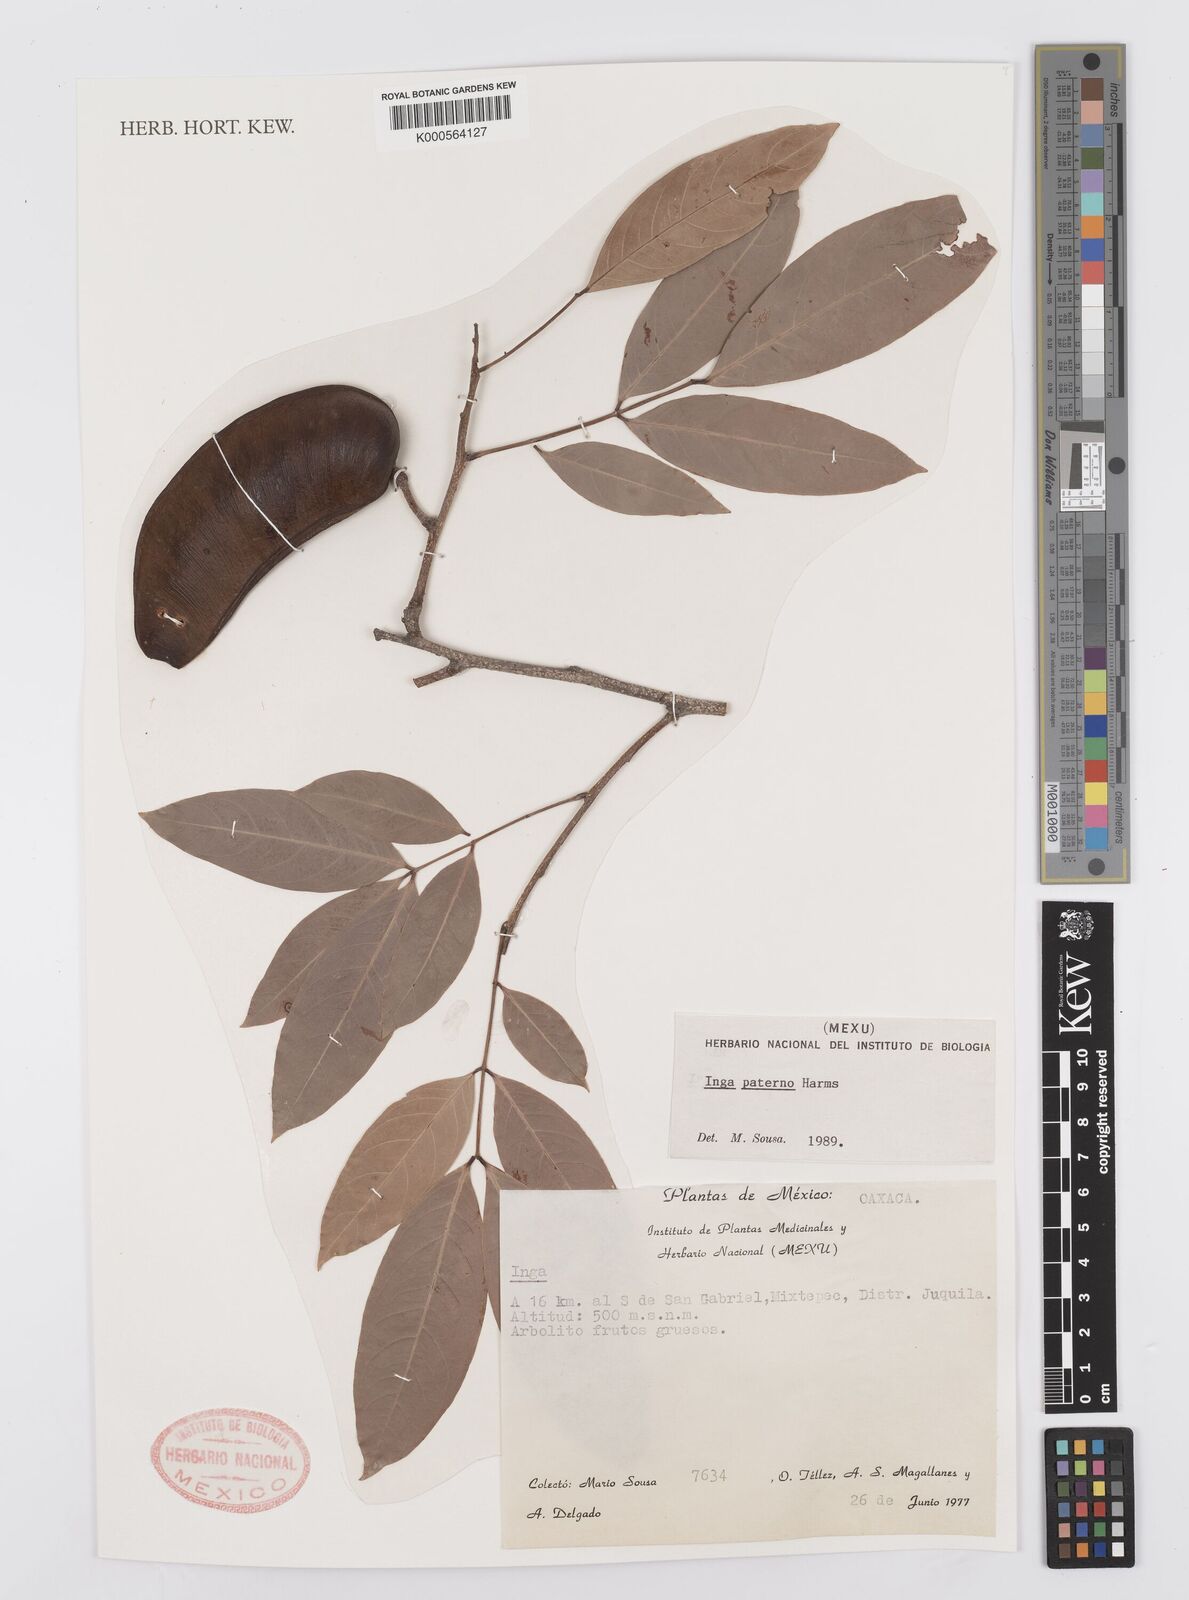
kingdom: Plantae
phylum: Tracheophyta
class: Magnoliopsida
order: Fabales
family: Fabaceae
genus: Inga
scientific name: Inga paterno
